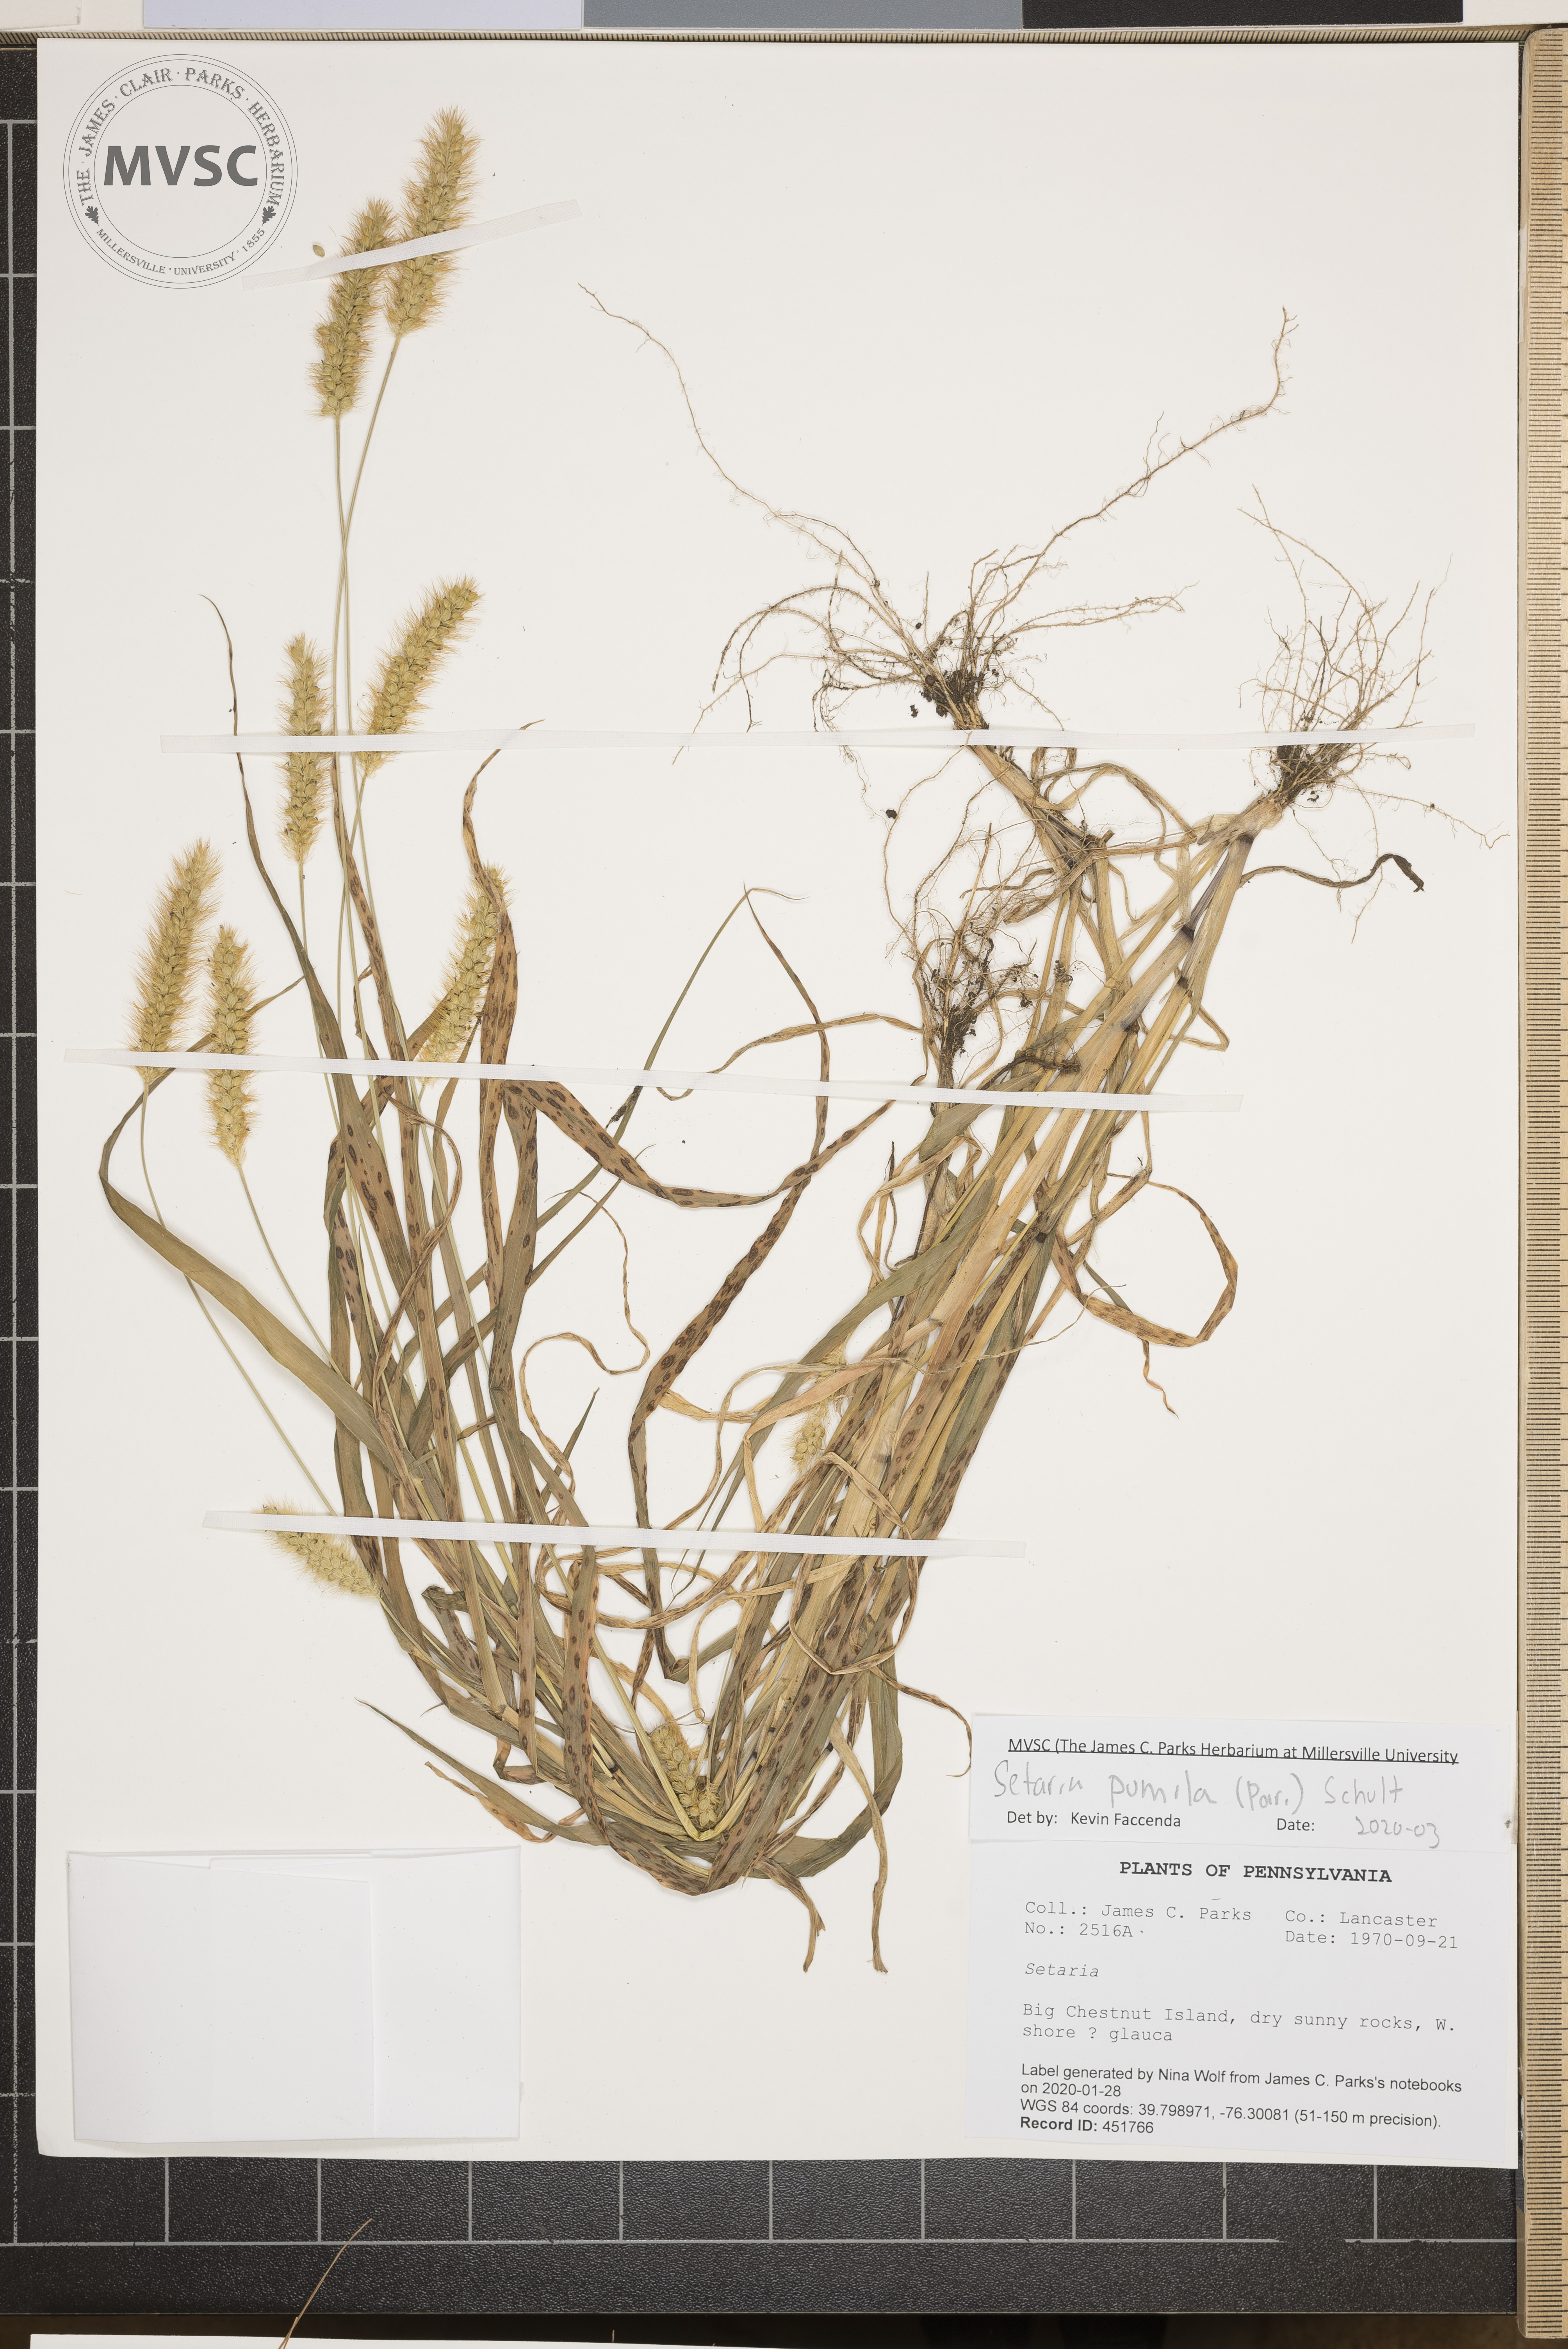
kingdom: Plantae
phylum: Tracheophyta
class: Liliopsida
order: Poales
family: Poaceae
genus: Setaria
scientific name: Setaria pumila
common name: Yellow bristle-grass
